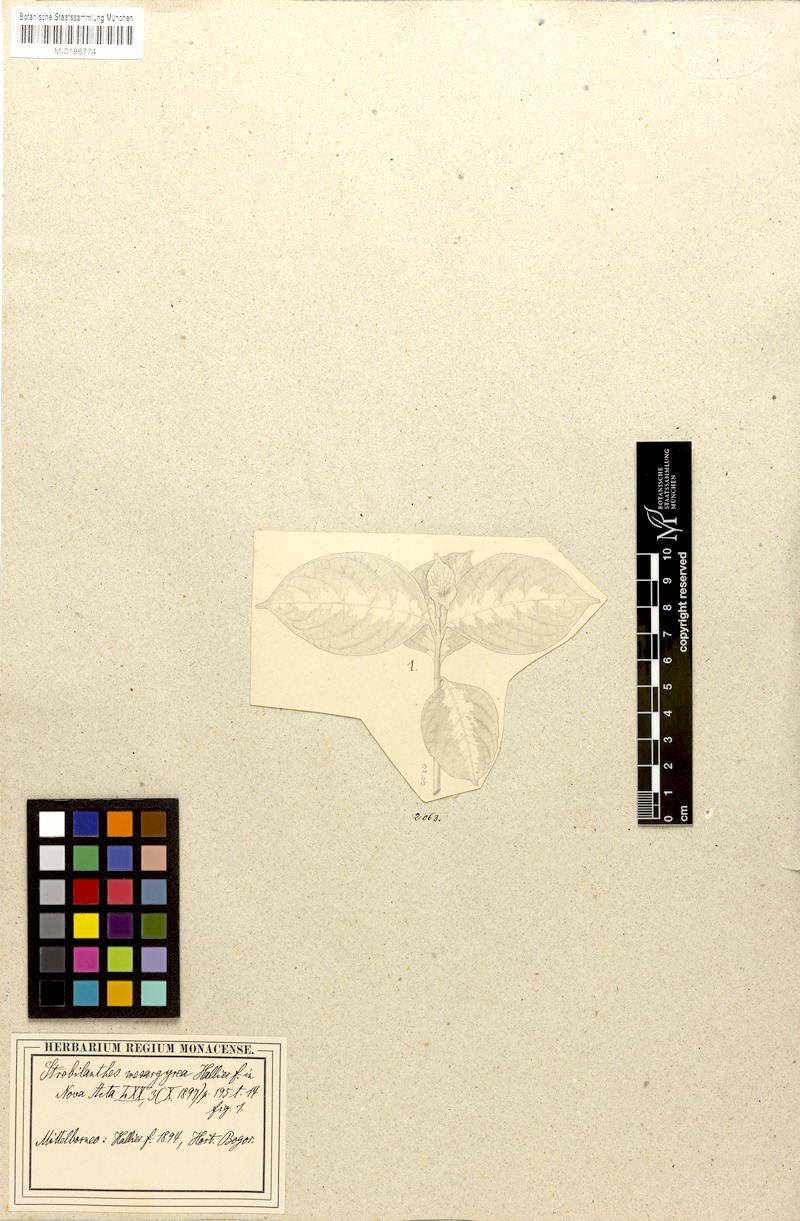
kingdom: Plantae
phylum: Tracheophyta
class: Magnoliopsida
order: Lamiales
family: Acanthaceae
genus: Borneacanthus
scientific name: Borneacanthus mesargyreus
